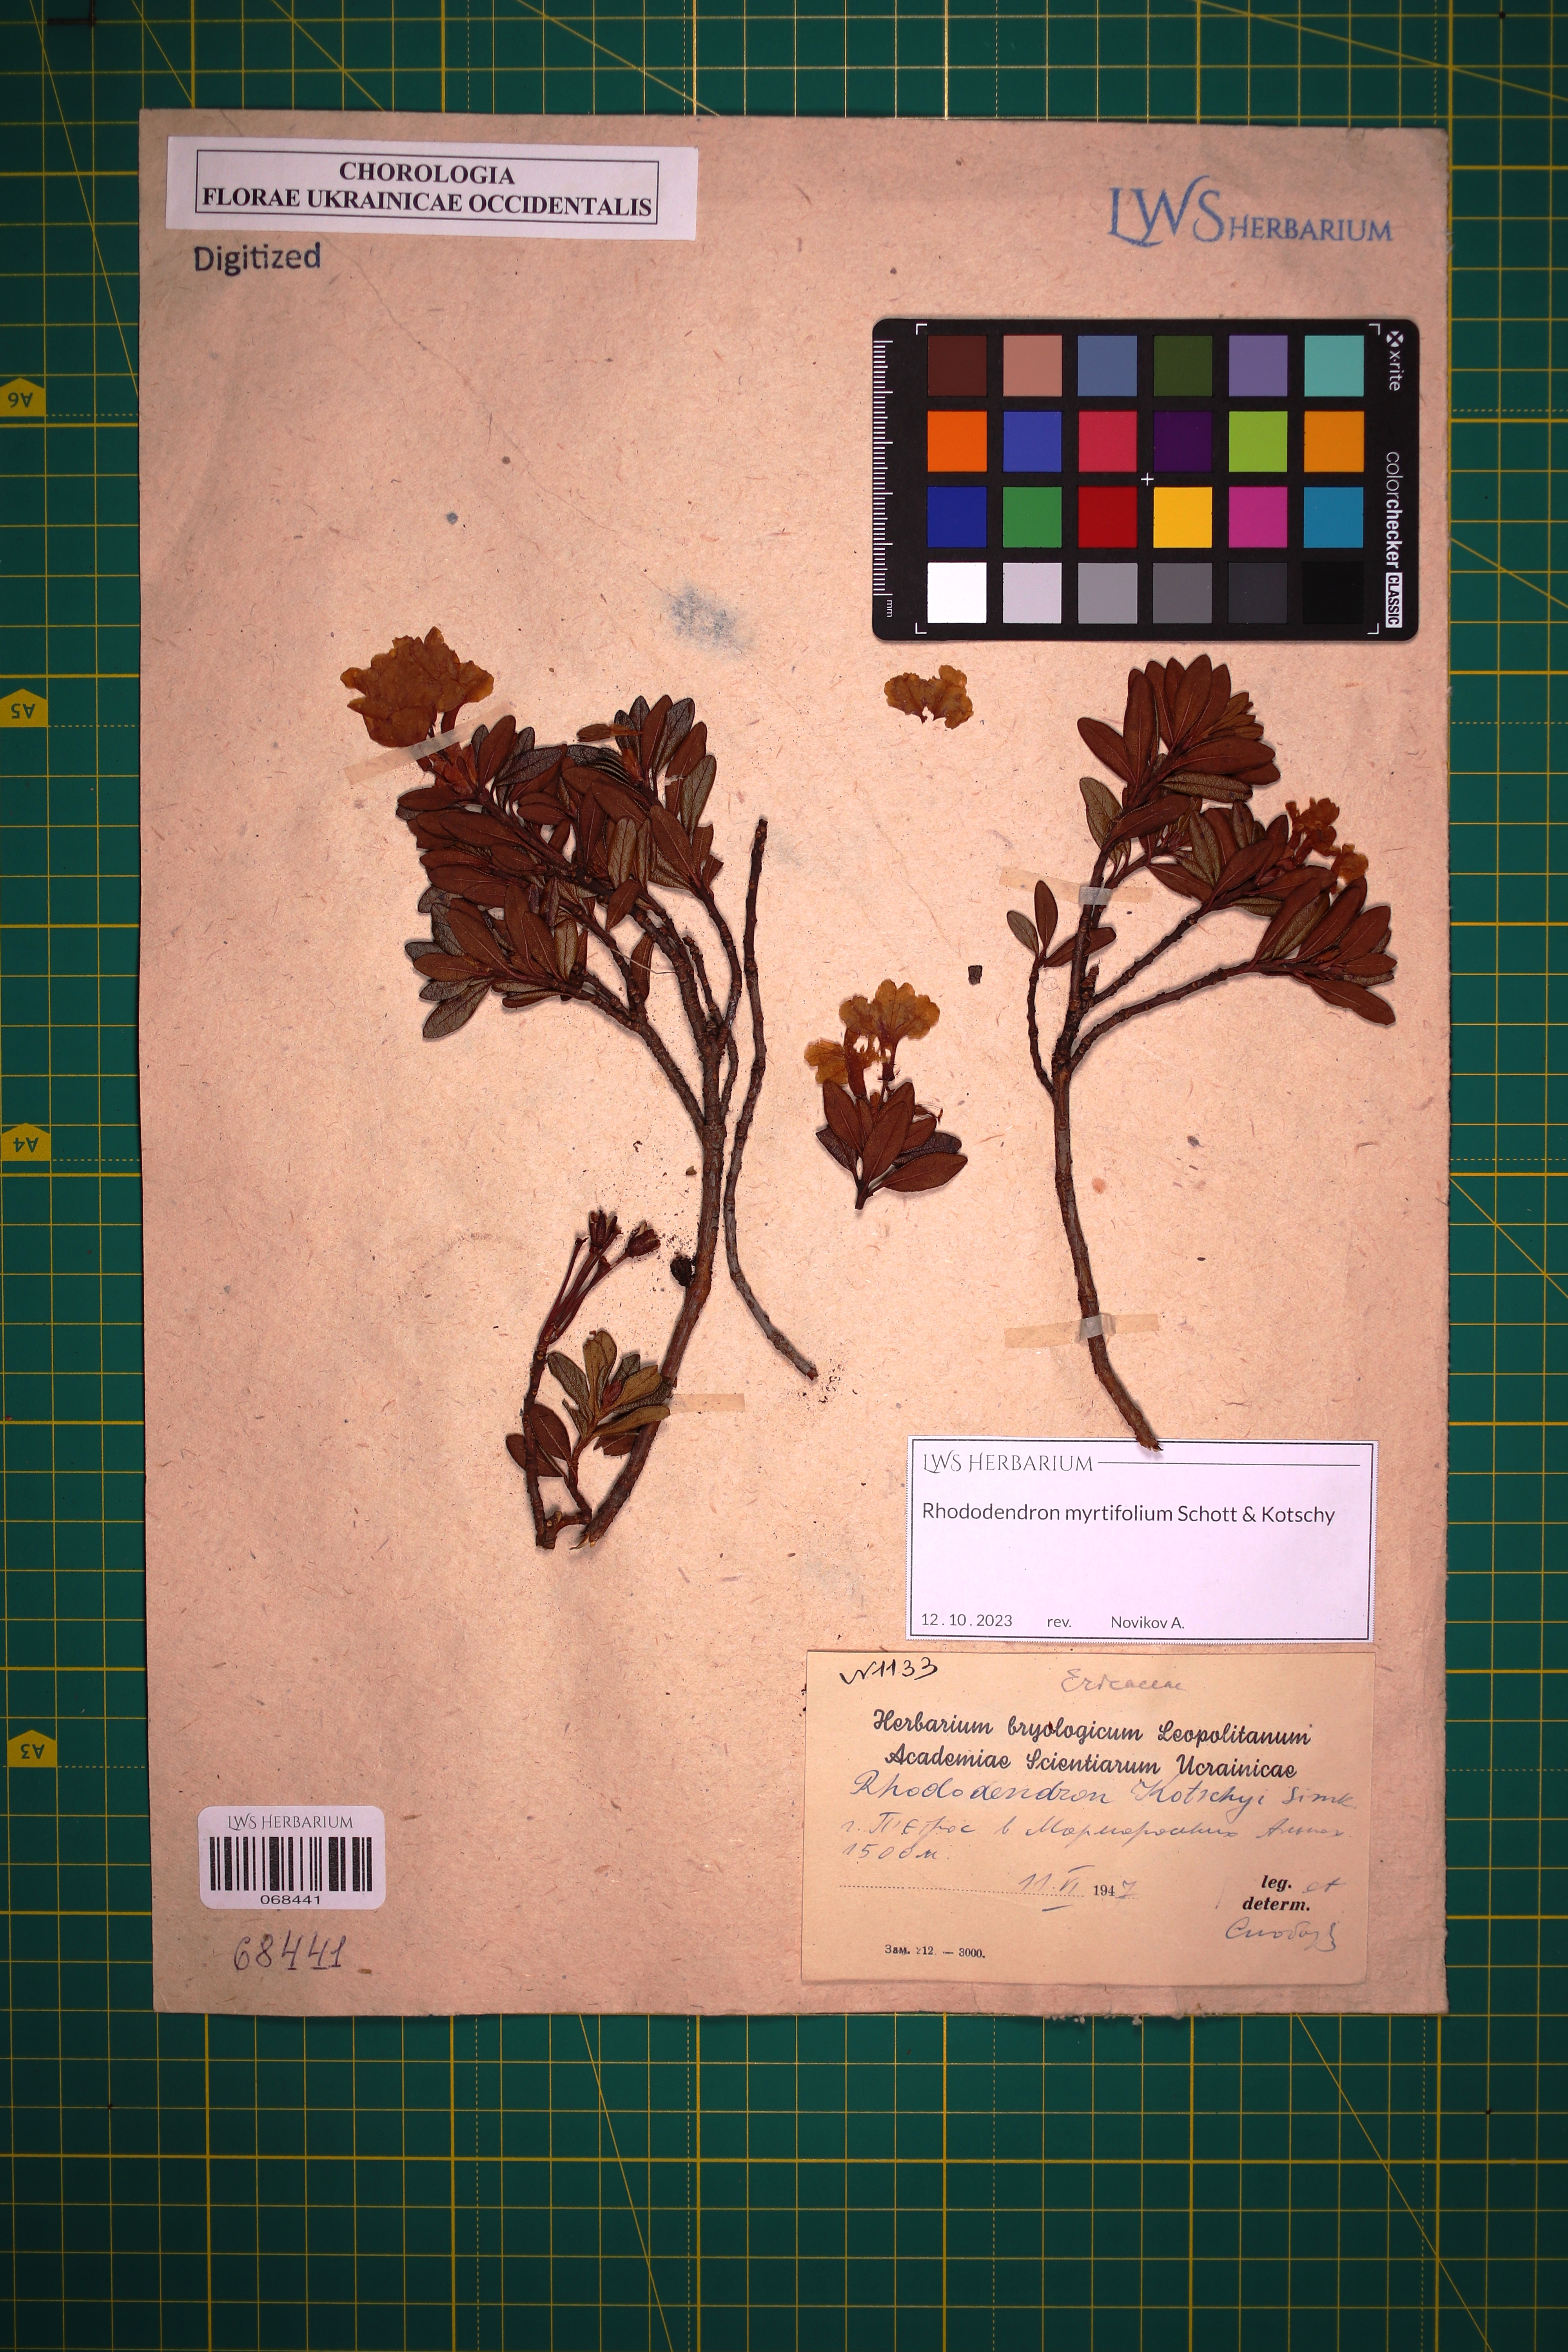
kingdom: Plantae
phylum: Tracheophyta
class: Magnoliopsida
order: Ericales
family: Ericaceae
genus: Rhododendron
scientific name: Rhododendron kotschyi
